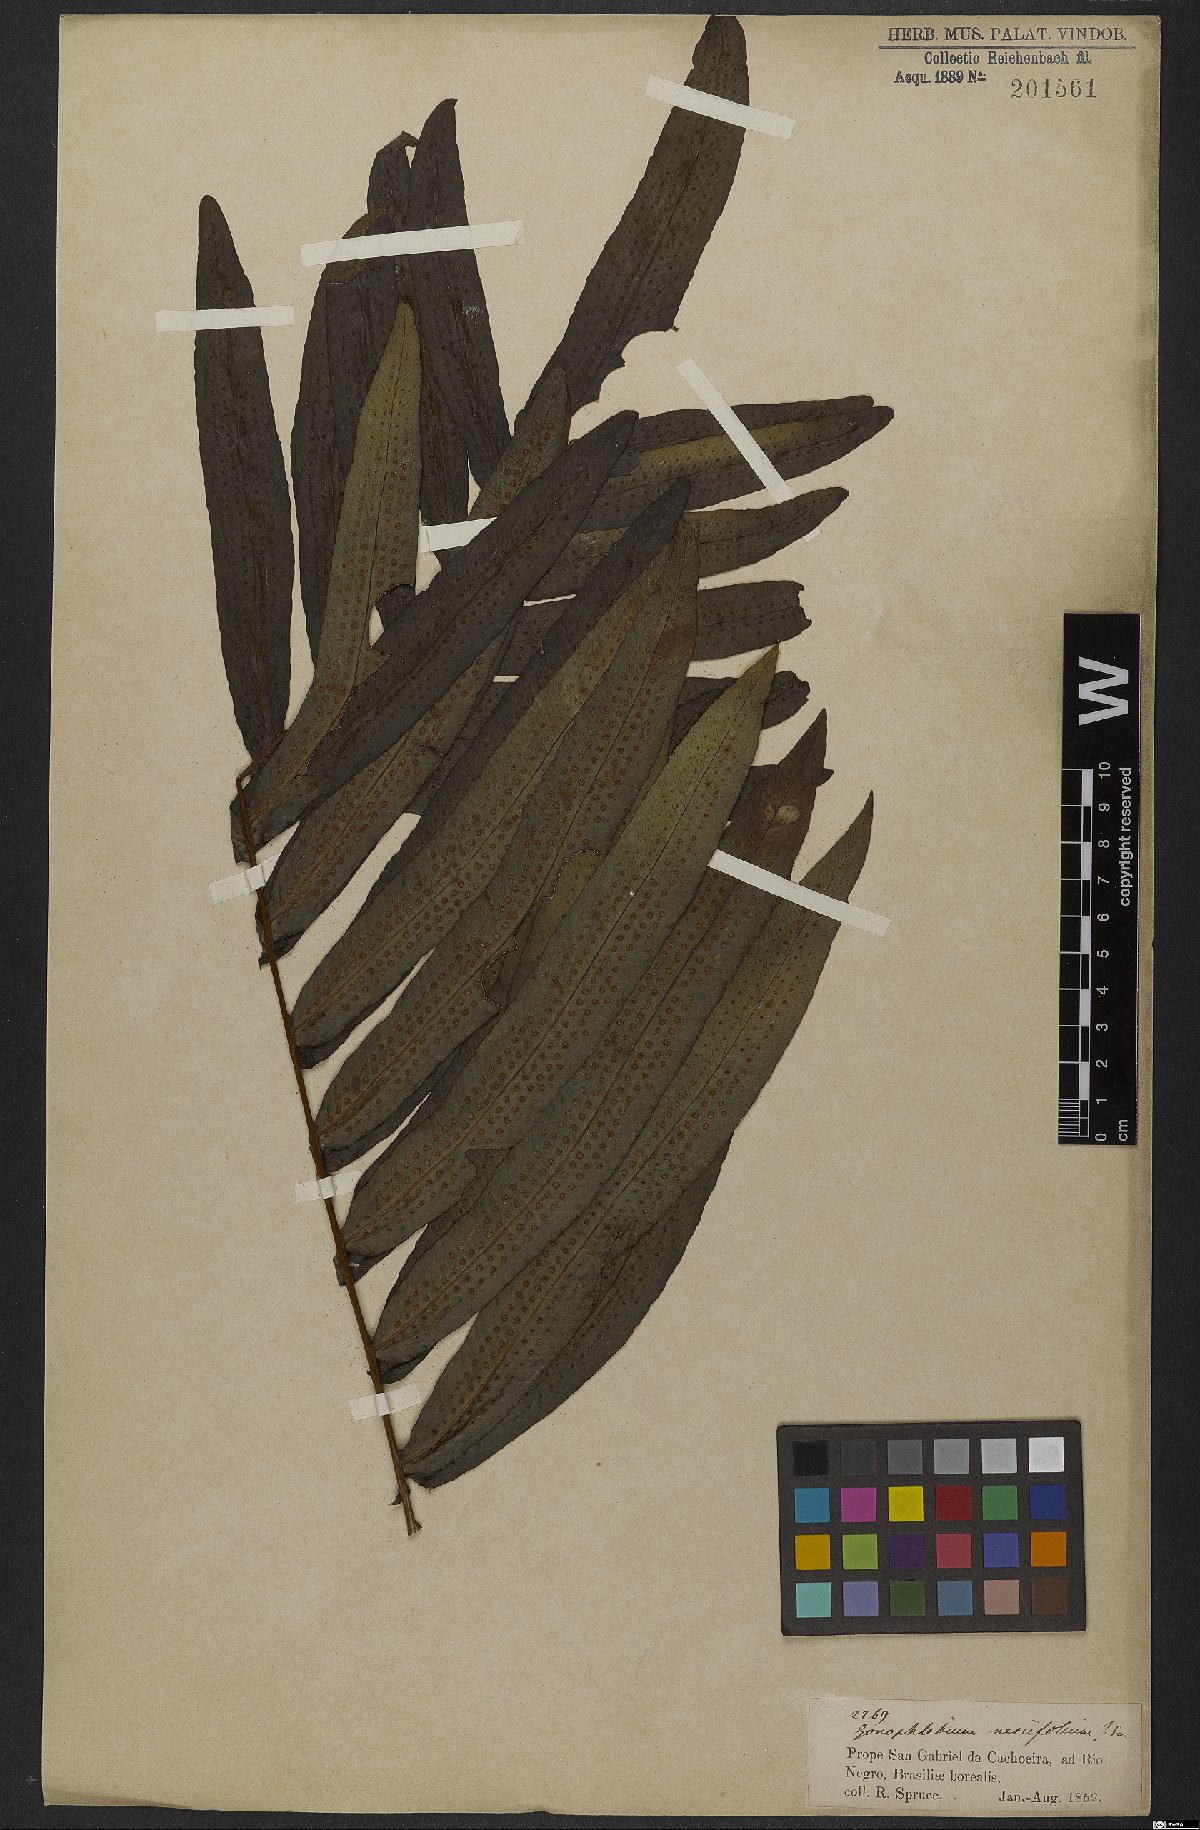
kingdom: Plantae
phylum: Tracheophyta
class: Polypodiopsida
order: Polypodiales
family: Polypodiaceae
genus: Serpocaulon
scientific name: Serpocaulon triseriale
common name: Angle-vein fern
